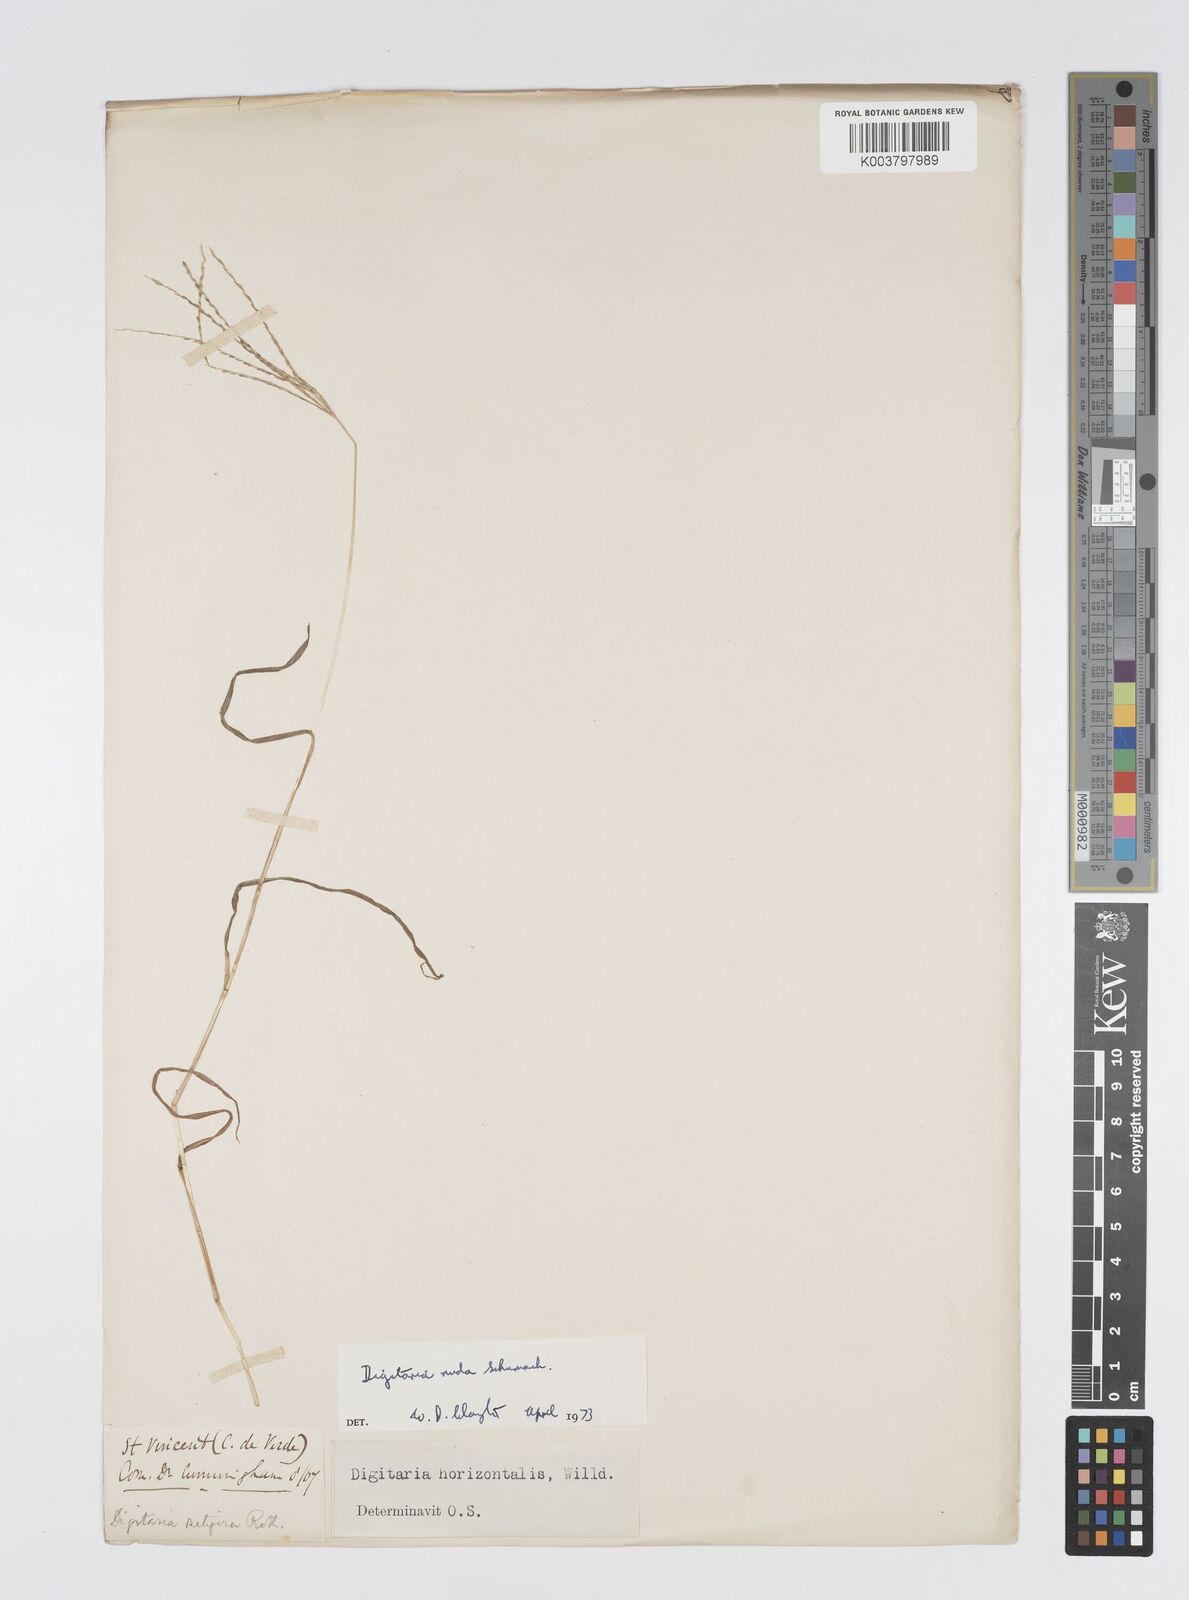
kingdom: Plantae
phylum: Tracheophyta
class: Liliopsida
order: Poales
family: Poaceae
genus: Digitaria
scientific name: Digitaria nuda
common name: Naked crabgrass
